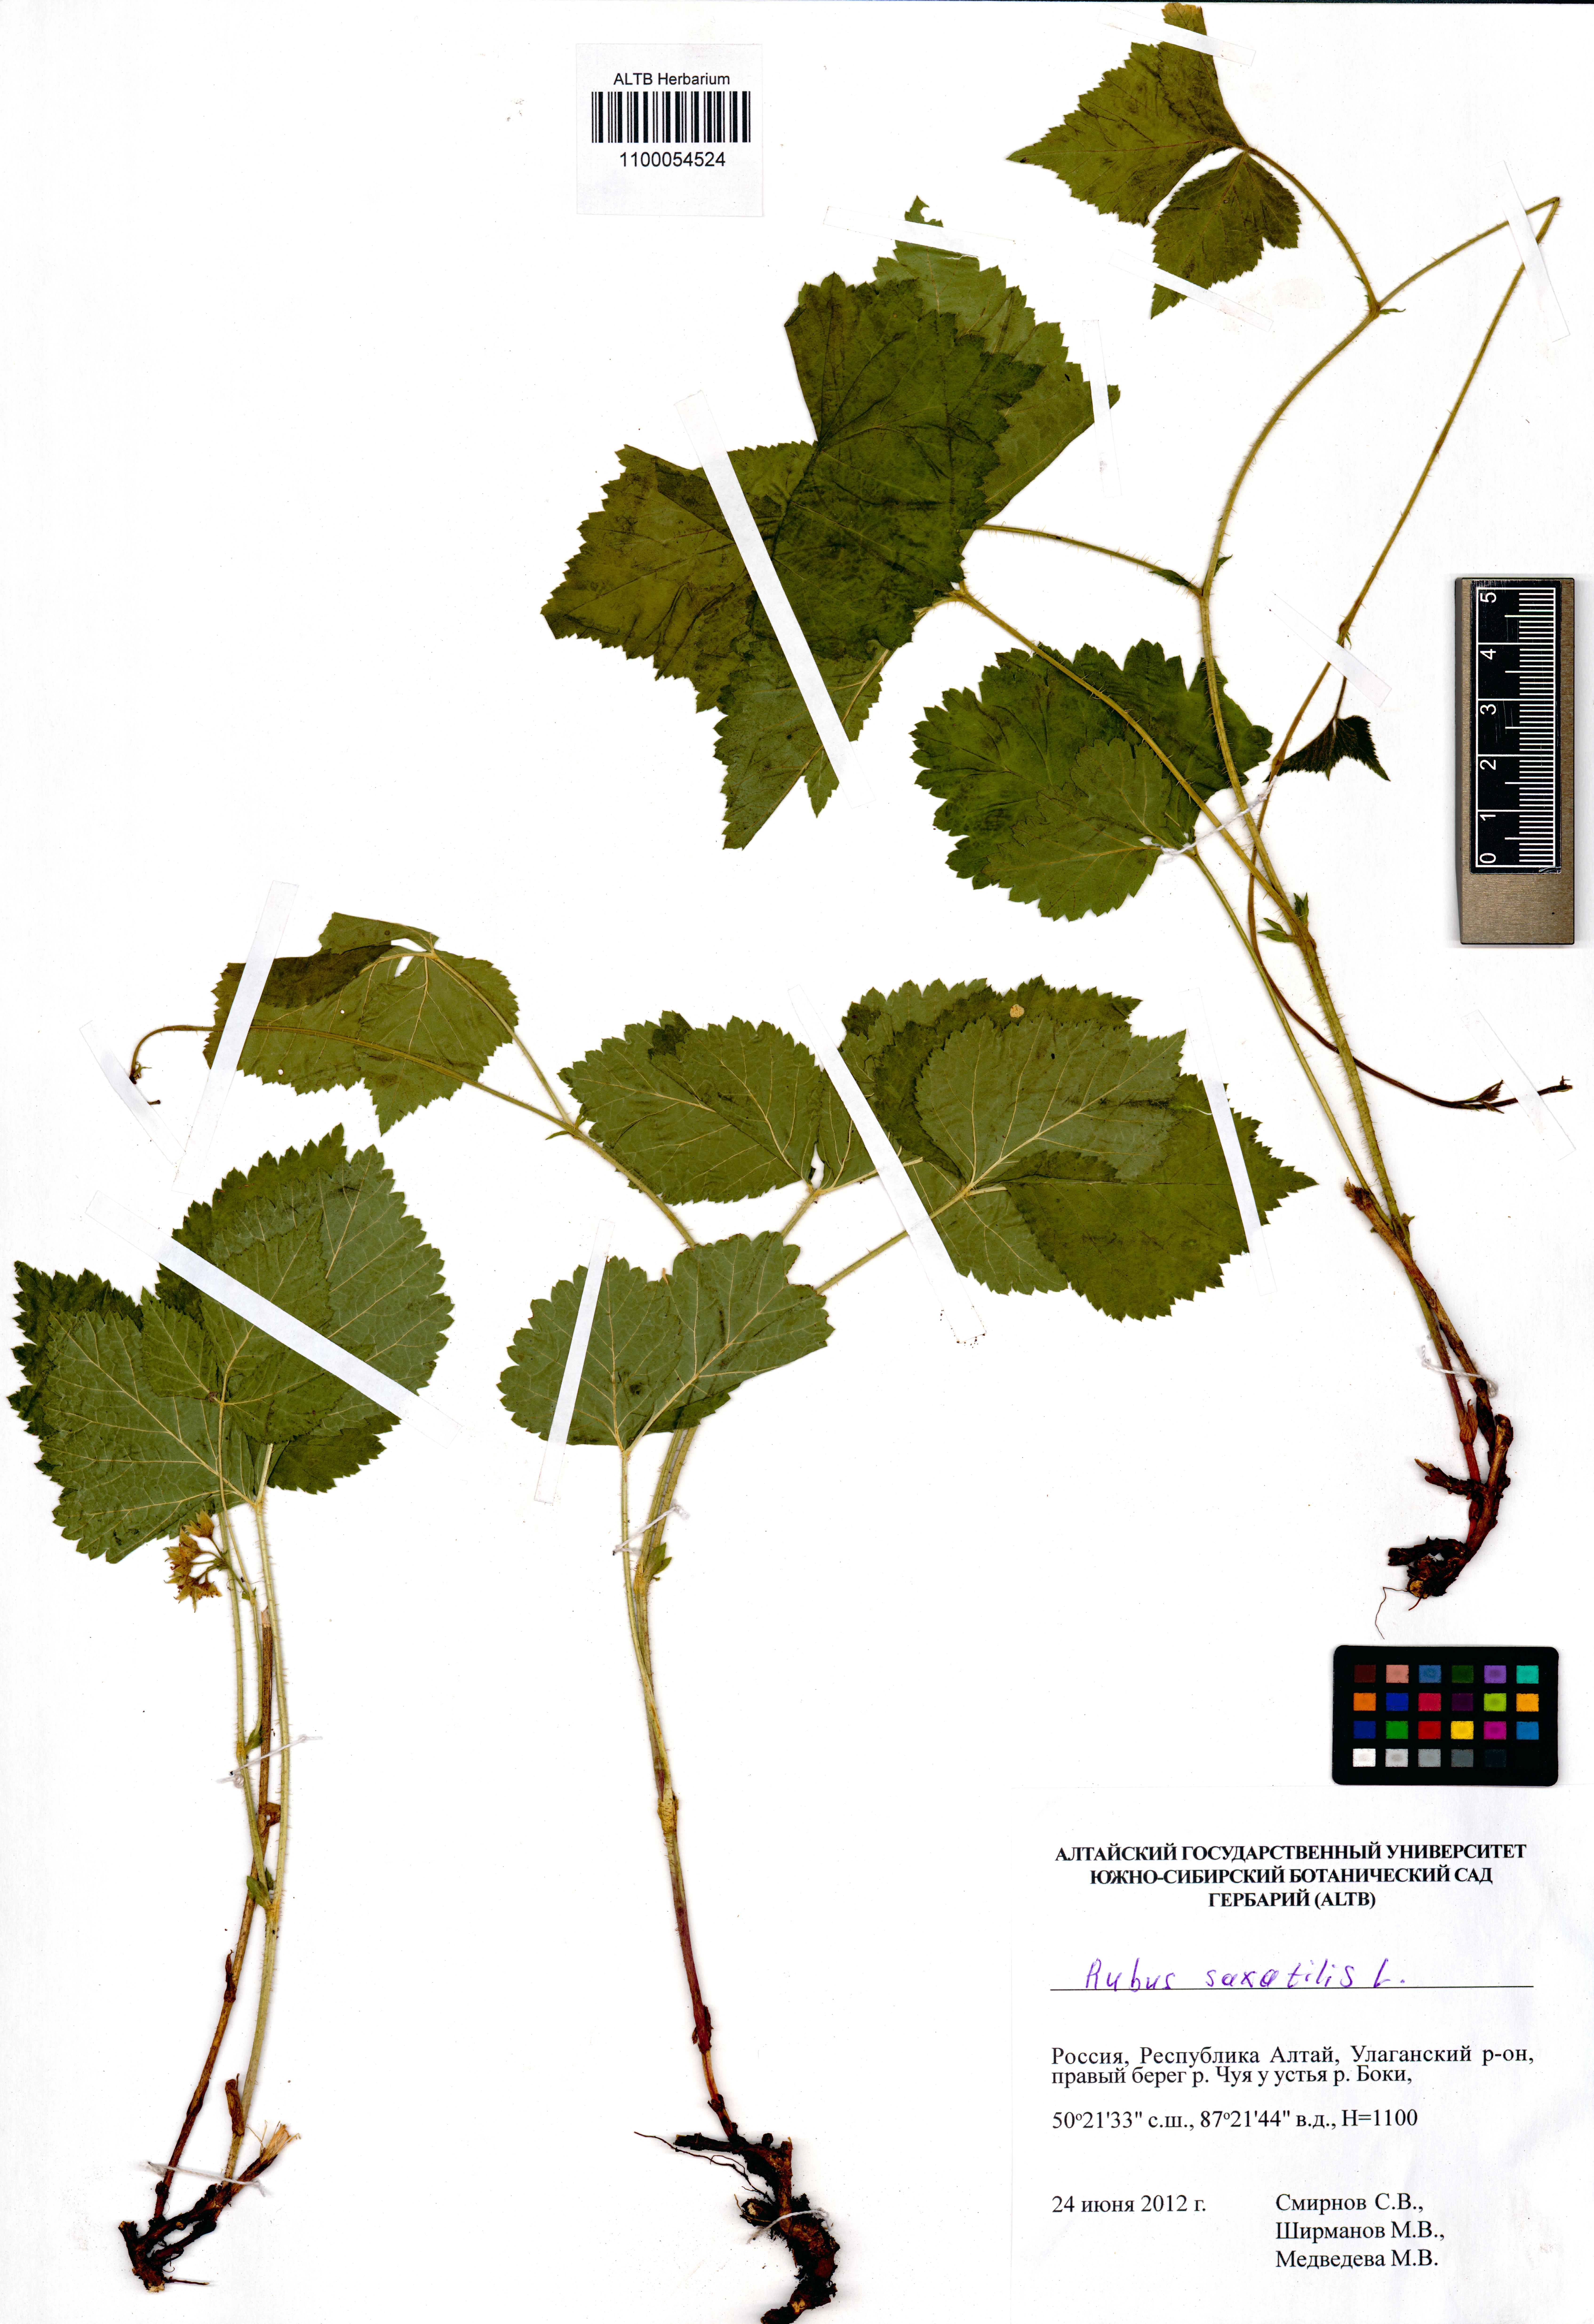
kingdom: Plantae
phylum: Tracheophyta
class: Magnoliopsida
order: Rosales
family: Rosaceae
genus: Rubus
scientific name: Rubus saxatilis
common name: Stone bramble
